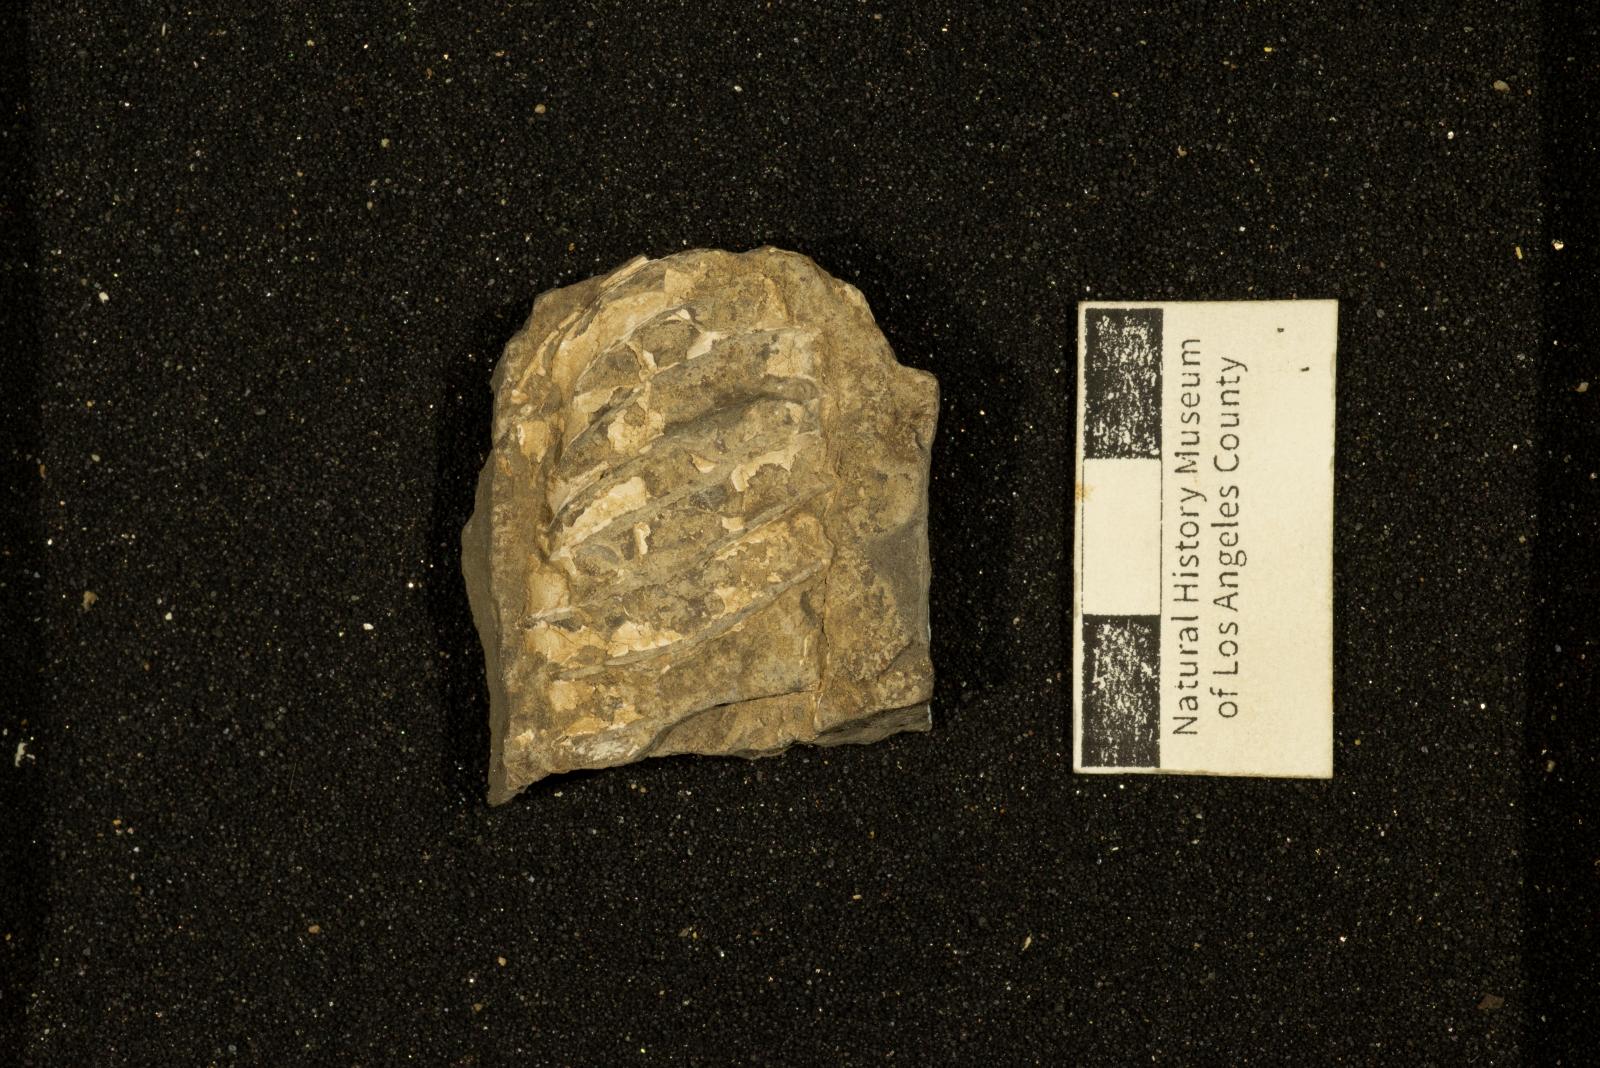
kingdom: Animalia
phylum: Mollusca
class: Cephalopoda
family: Nostoceratidae
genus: Nostoceras
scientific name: Nostoceras
